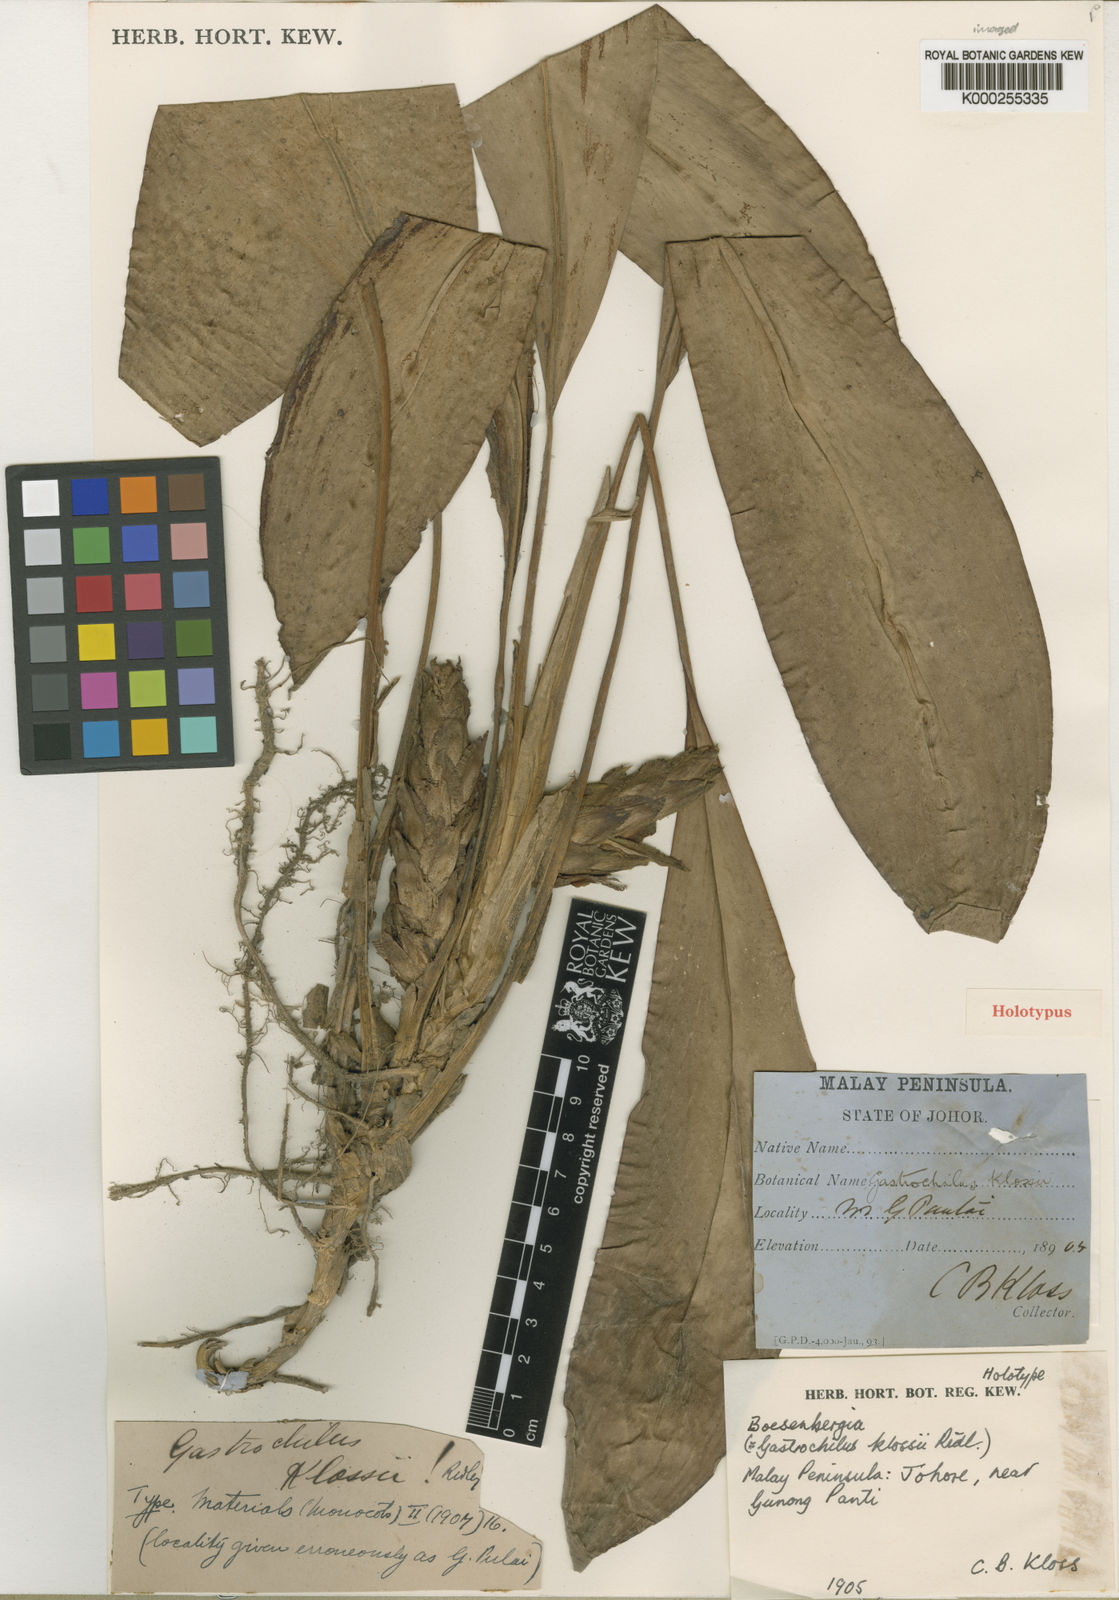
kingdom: Plantae
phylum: Tracheophyta
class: Liliopsida
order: Zingiberales
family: Zingiberaceae
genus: Scaphochlamys
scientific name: Scaphochlamys klossii
